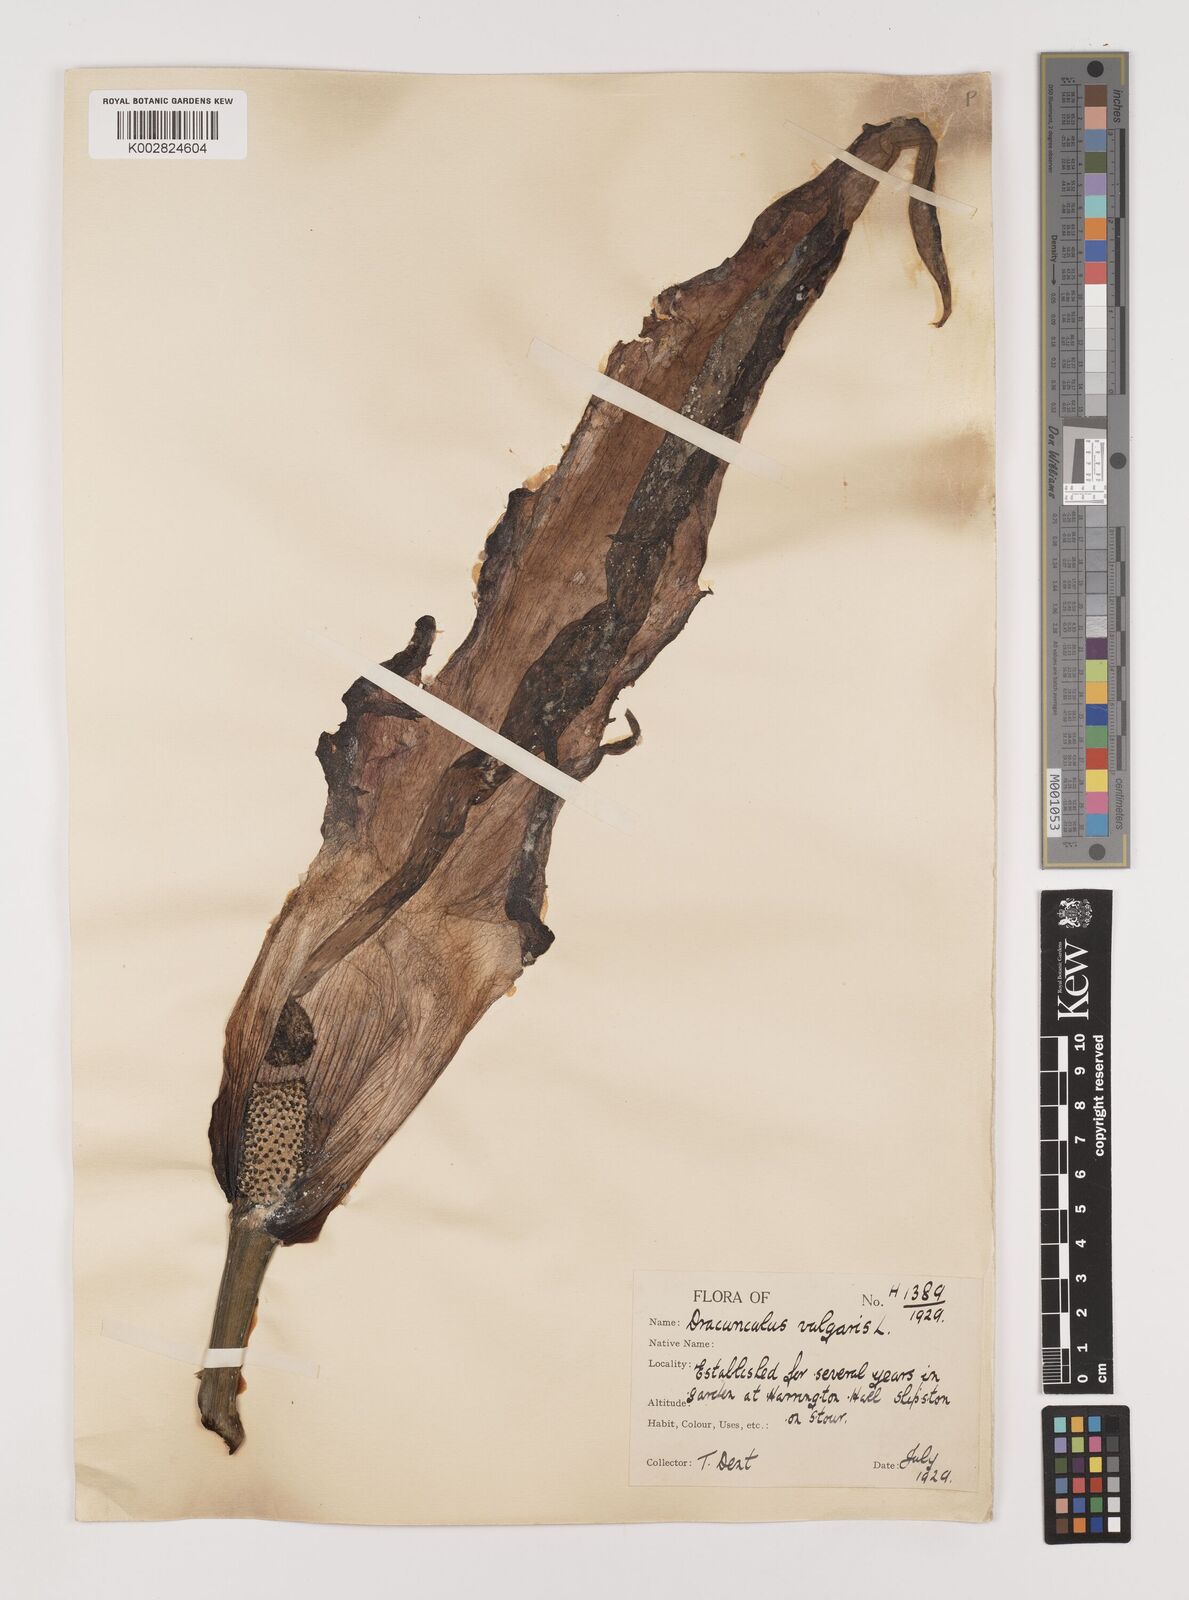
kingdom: Plantae
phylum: Tracheophyta
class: Liliopsida
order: Alismatales
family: Araceae
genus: Dracunculus
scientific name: Dracunculus vulgaris
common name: Dragon arum
